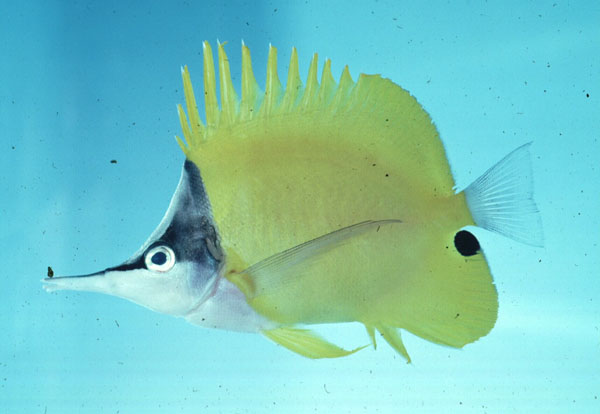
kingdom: Animalia
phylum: Chordata
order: Perciformes
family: Chaetodontidae
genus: Forcipiger
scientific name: Forcipiger flavissimus
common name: Forcepsfish
